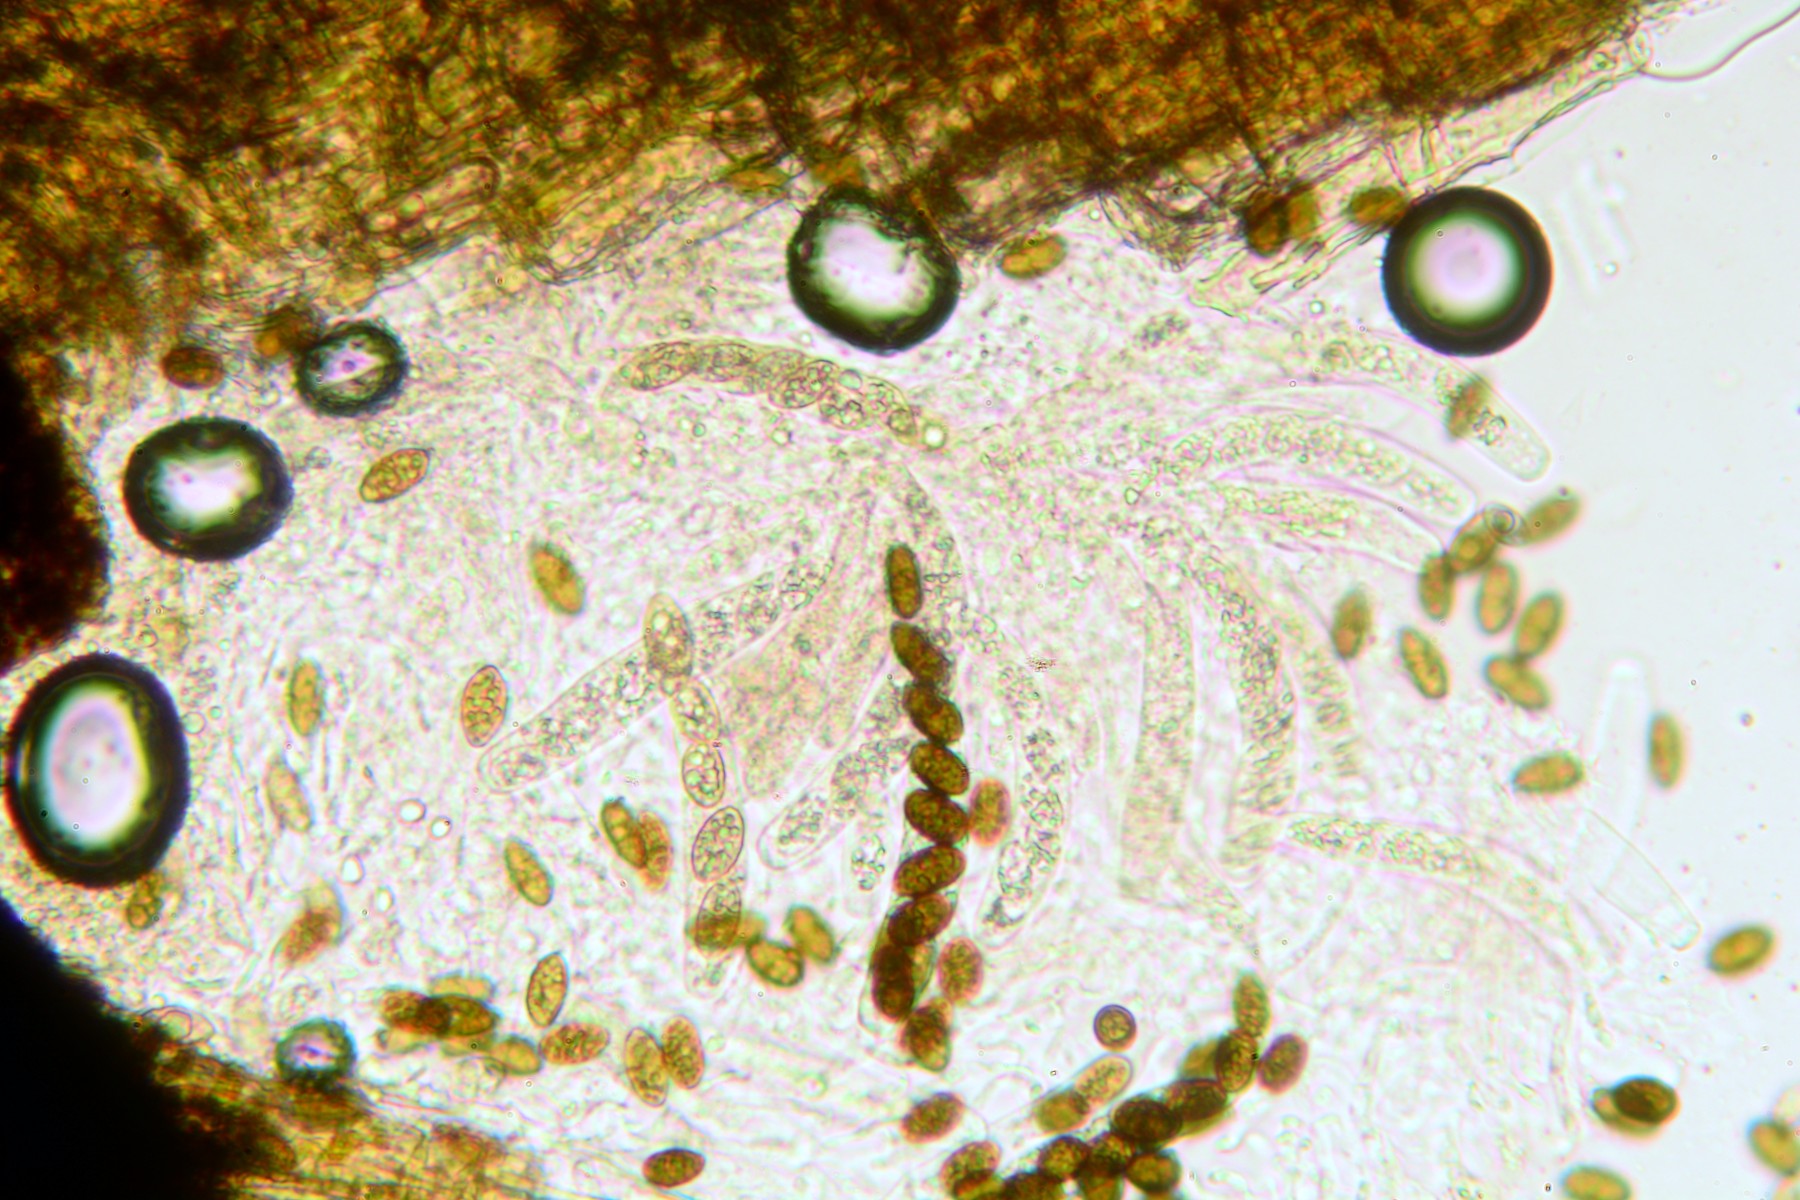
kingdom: Fungi
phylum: Ascomycota
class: Sordariomycetes
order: Amphisphaeriales
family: Amphisphaeriaceae
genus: Amphisphaerella
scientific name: Amphisphaerella xylostei
